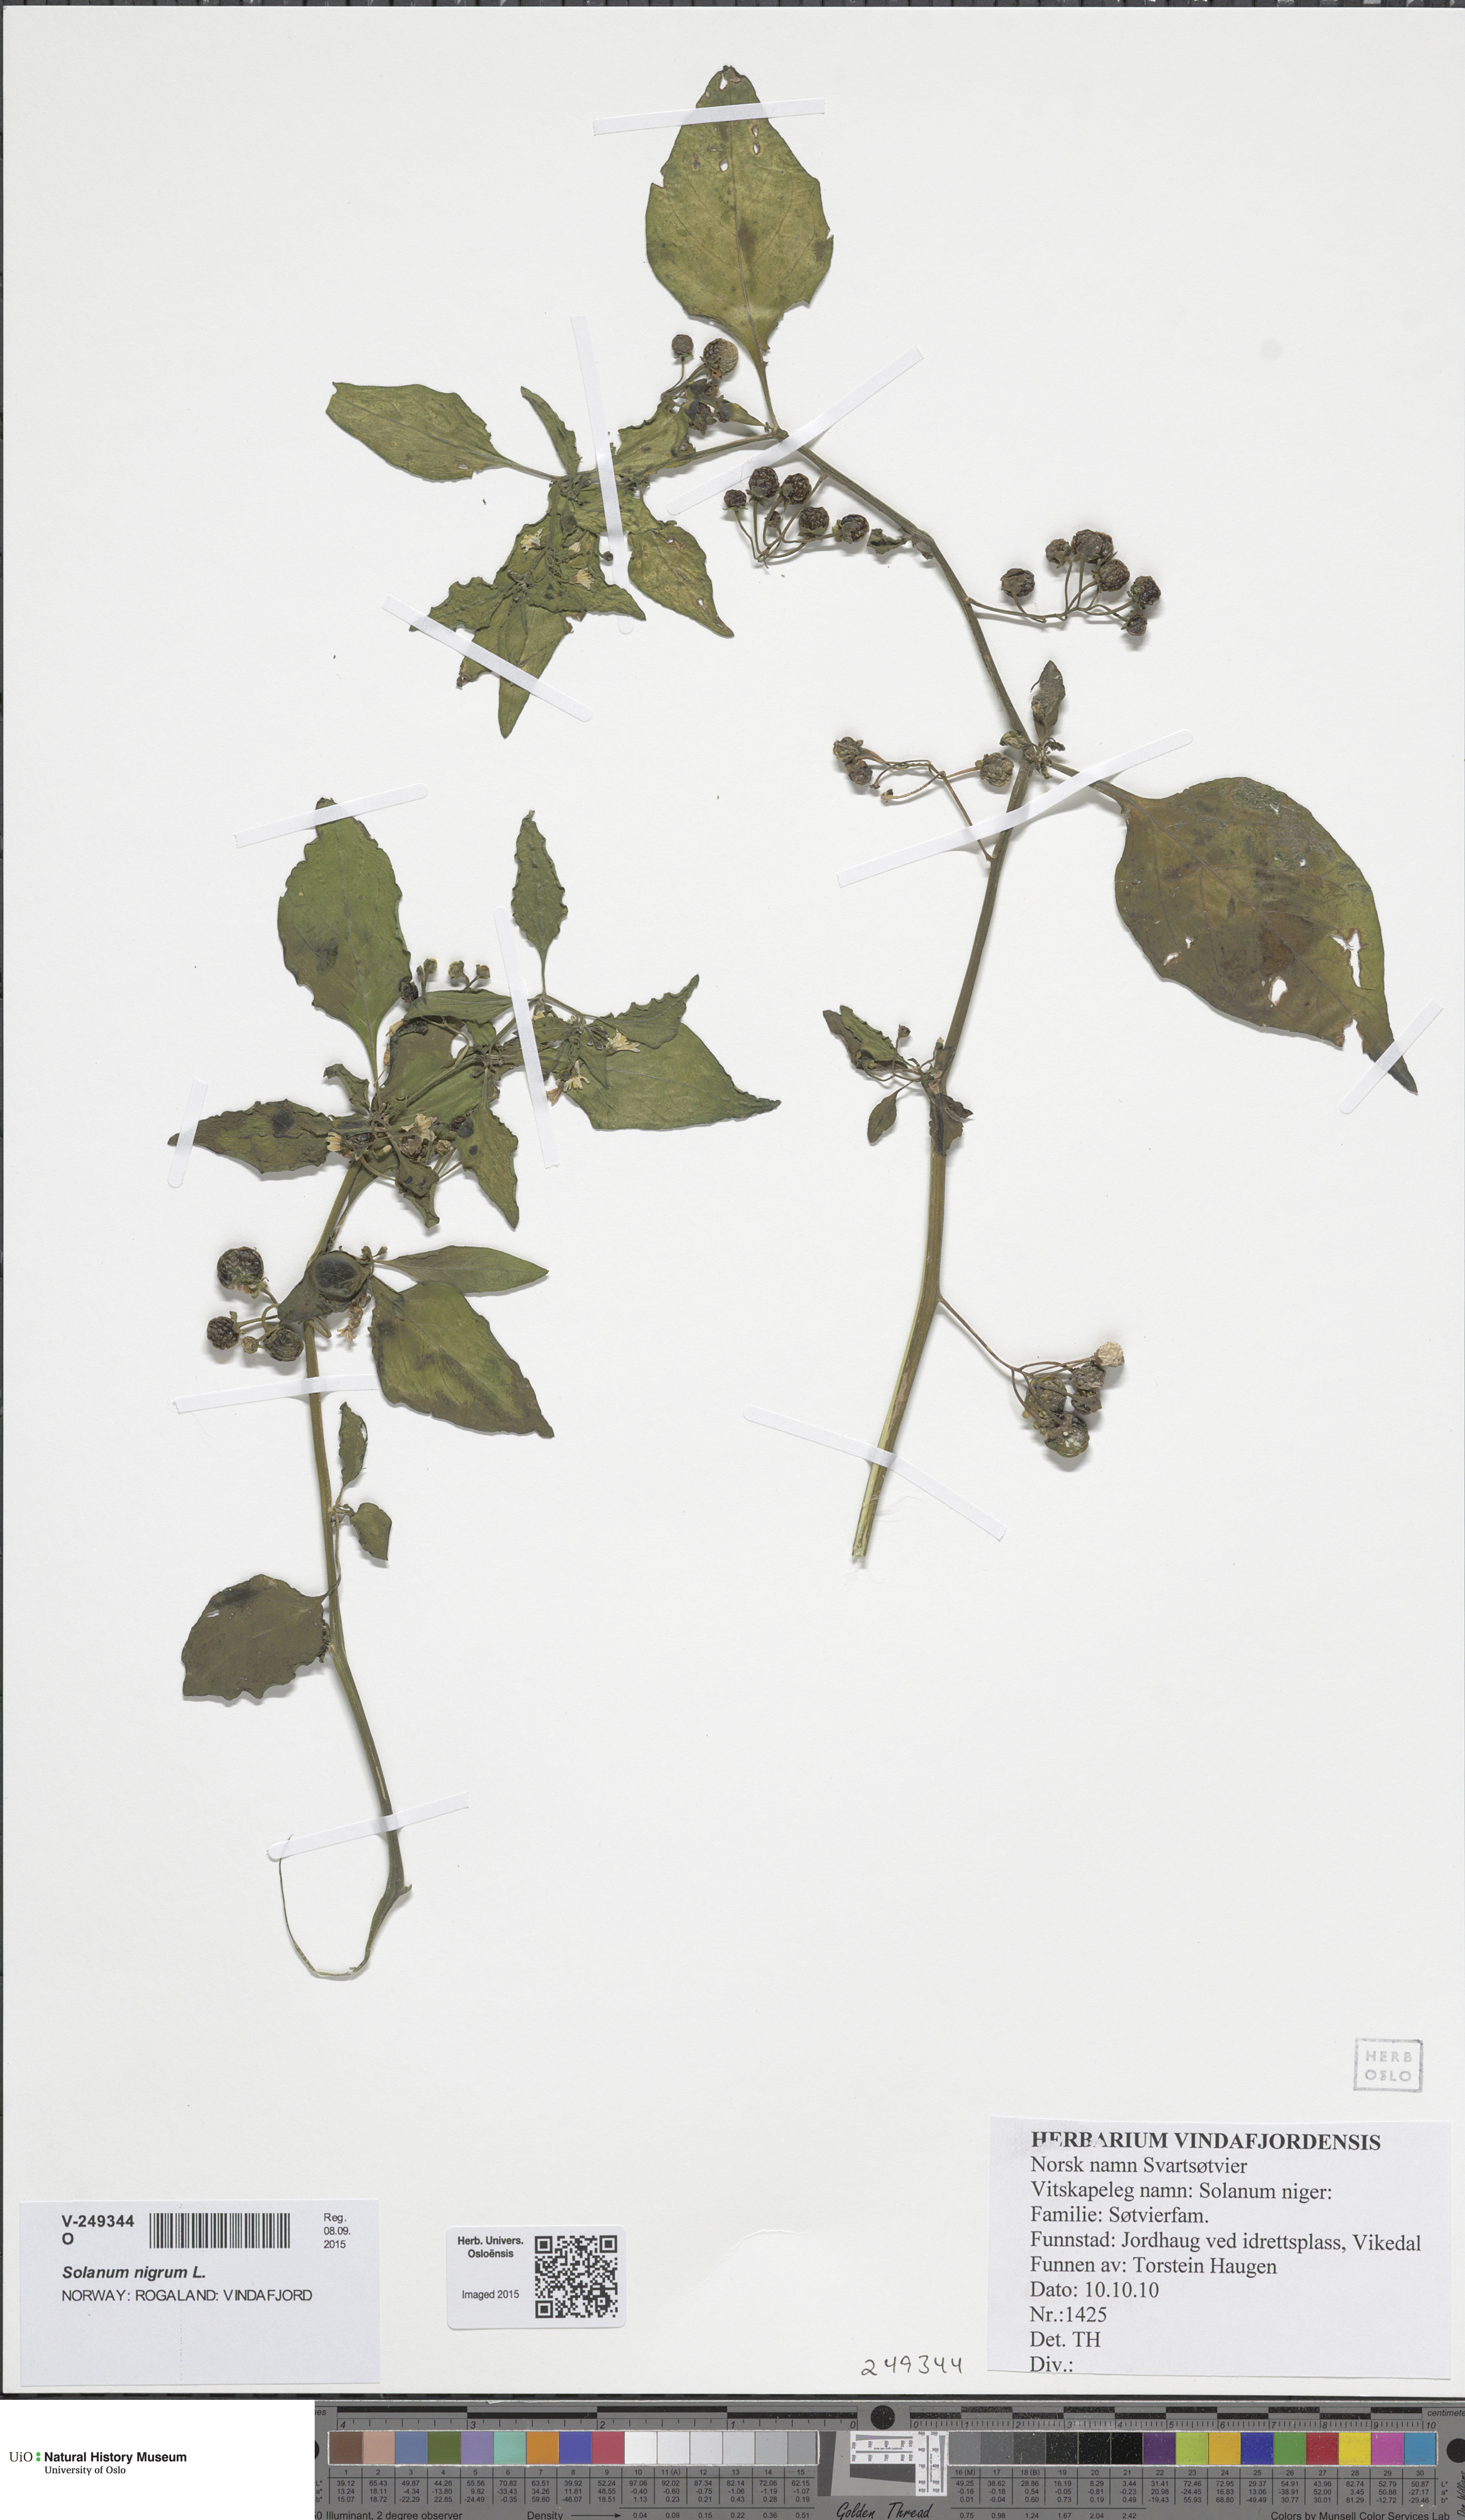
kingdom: Plantae
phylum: Tracheophyta
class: Magnoliopsida
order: Solanales
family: Solanaceae
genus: Solanum
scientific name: Solanum nigrum
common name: Black nightshade
